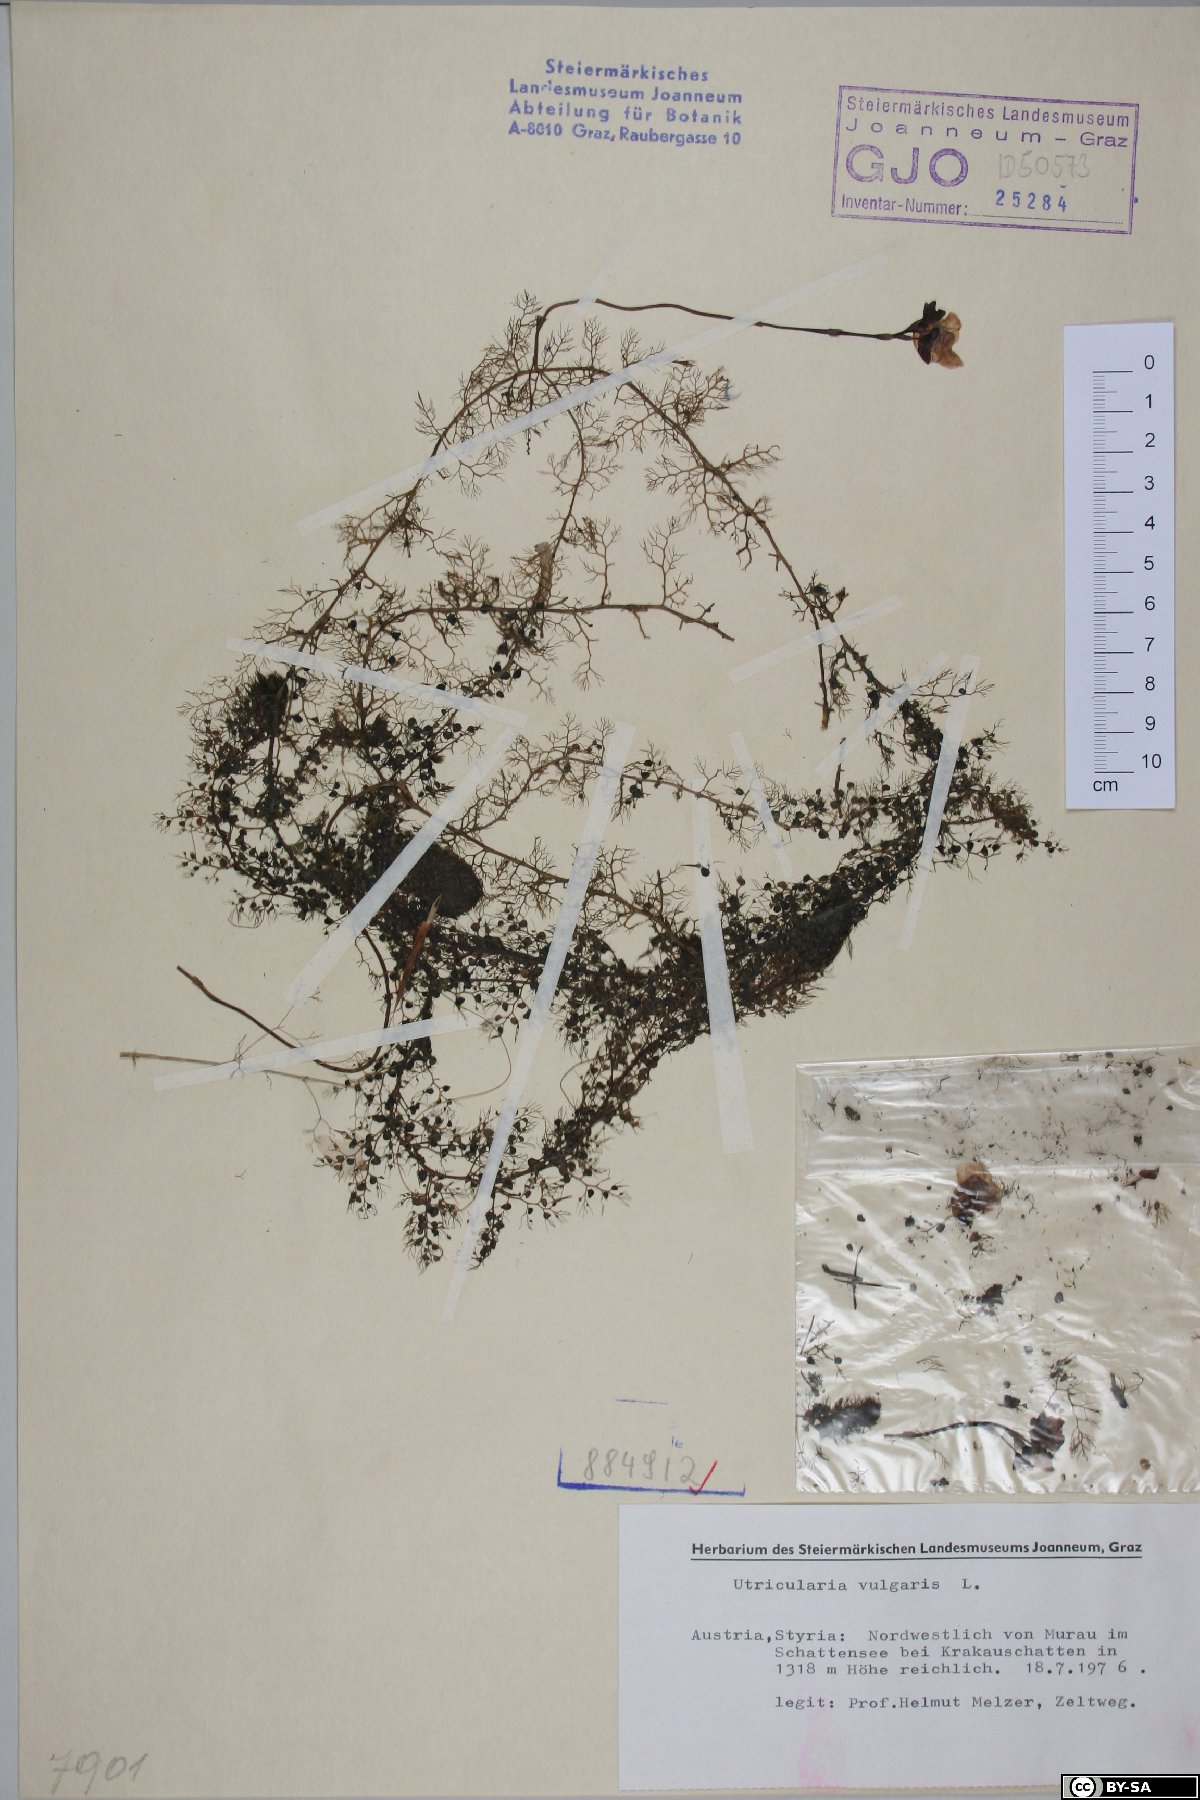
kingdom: Plantae
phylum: Tracheophyta
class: Magnoliopsida
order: Lamiales
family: Lentibulariaceae
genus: Utricularia
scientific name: Utricularia vulgaris
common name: Greater bladderwort
